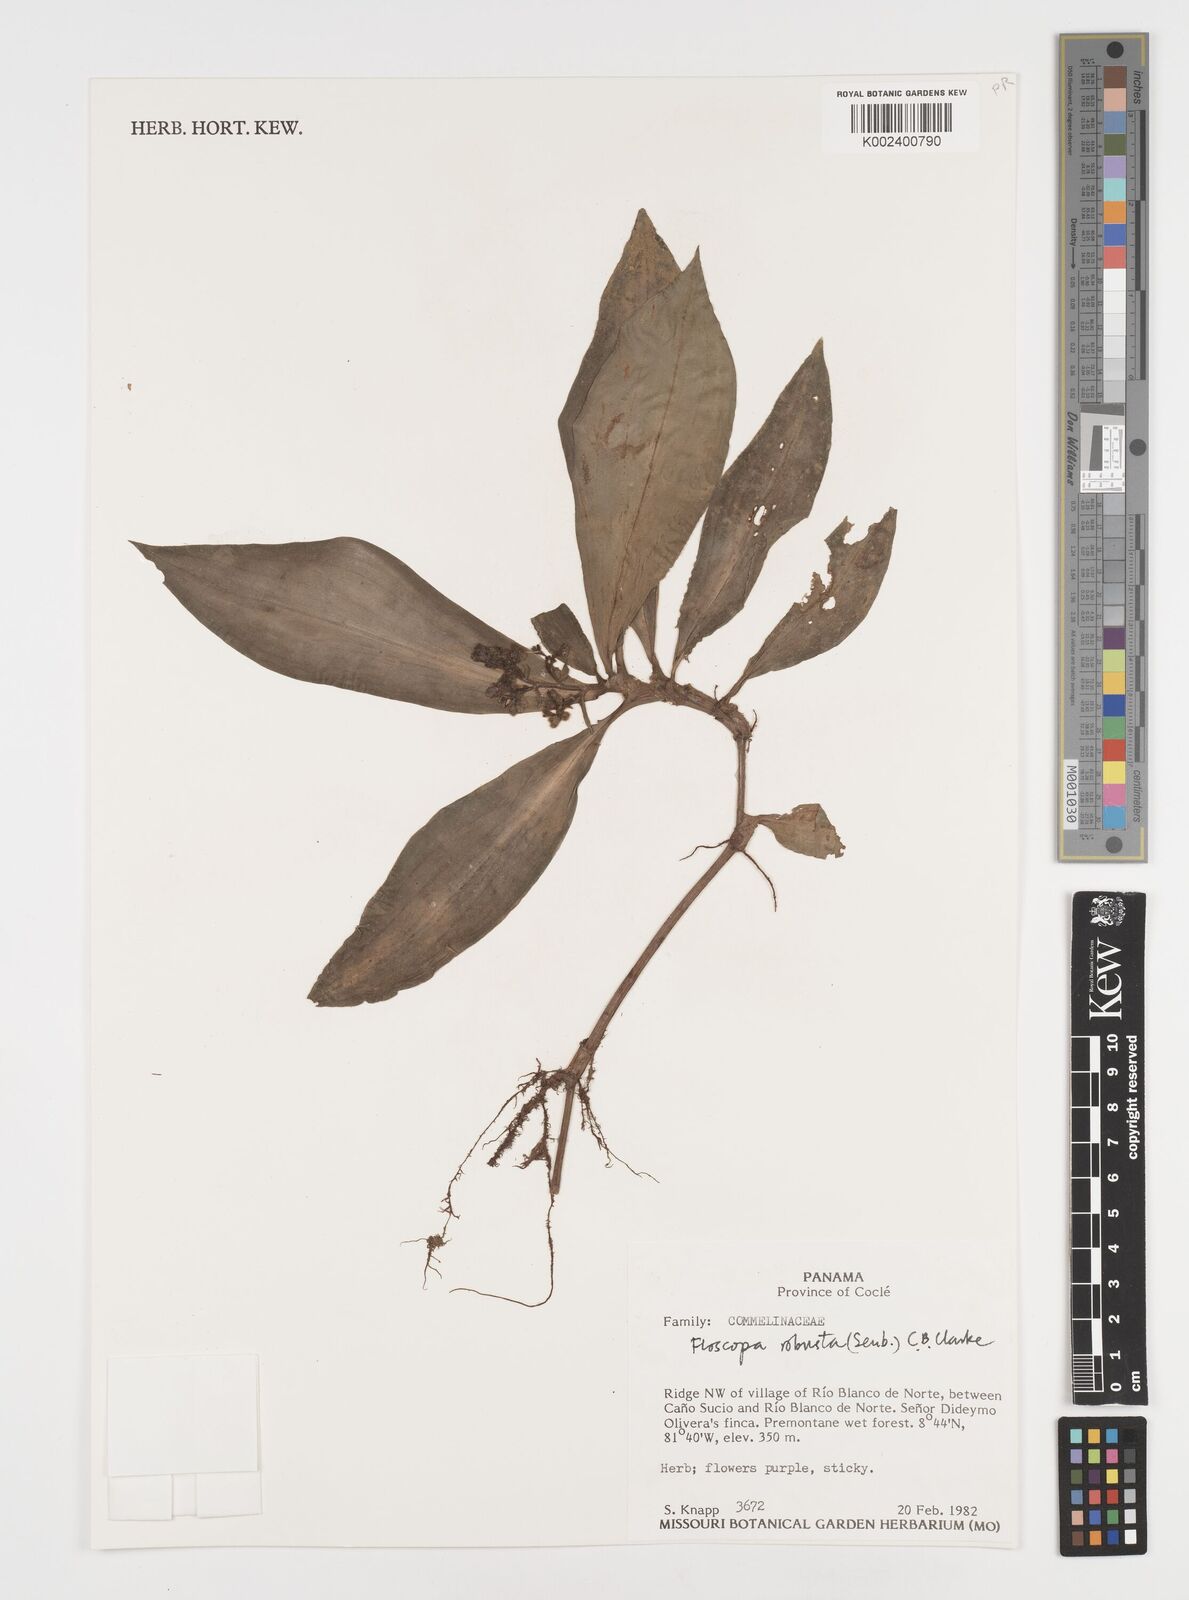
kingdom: Plantae
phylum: Tracheophyta
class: Liliopsida
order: Commelinales
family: Commelinaceae
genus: Floscopa
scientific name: Floscopa robusta
